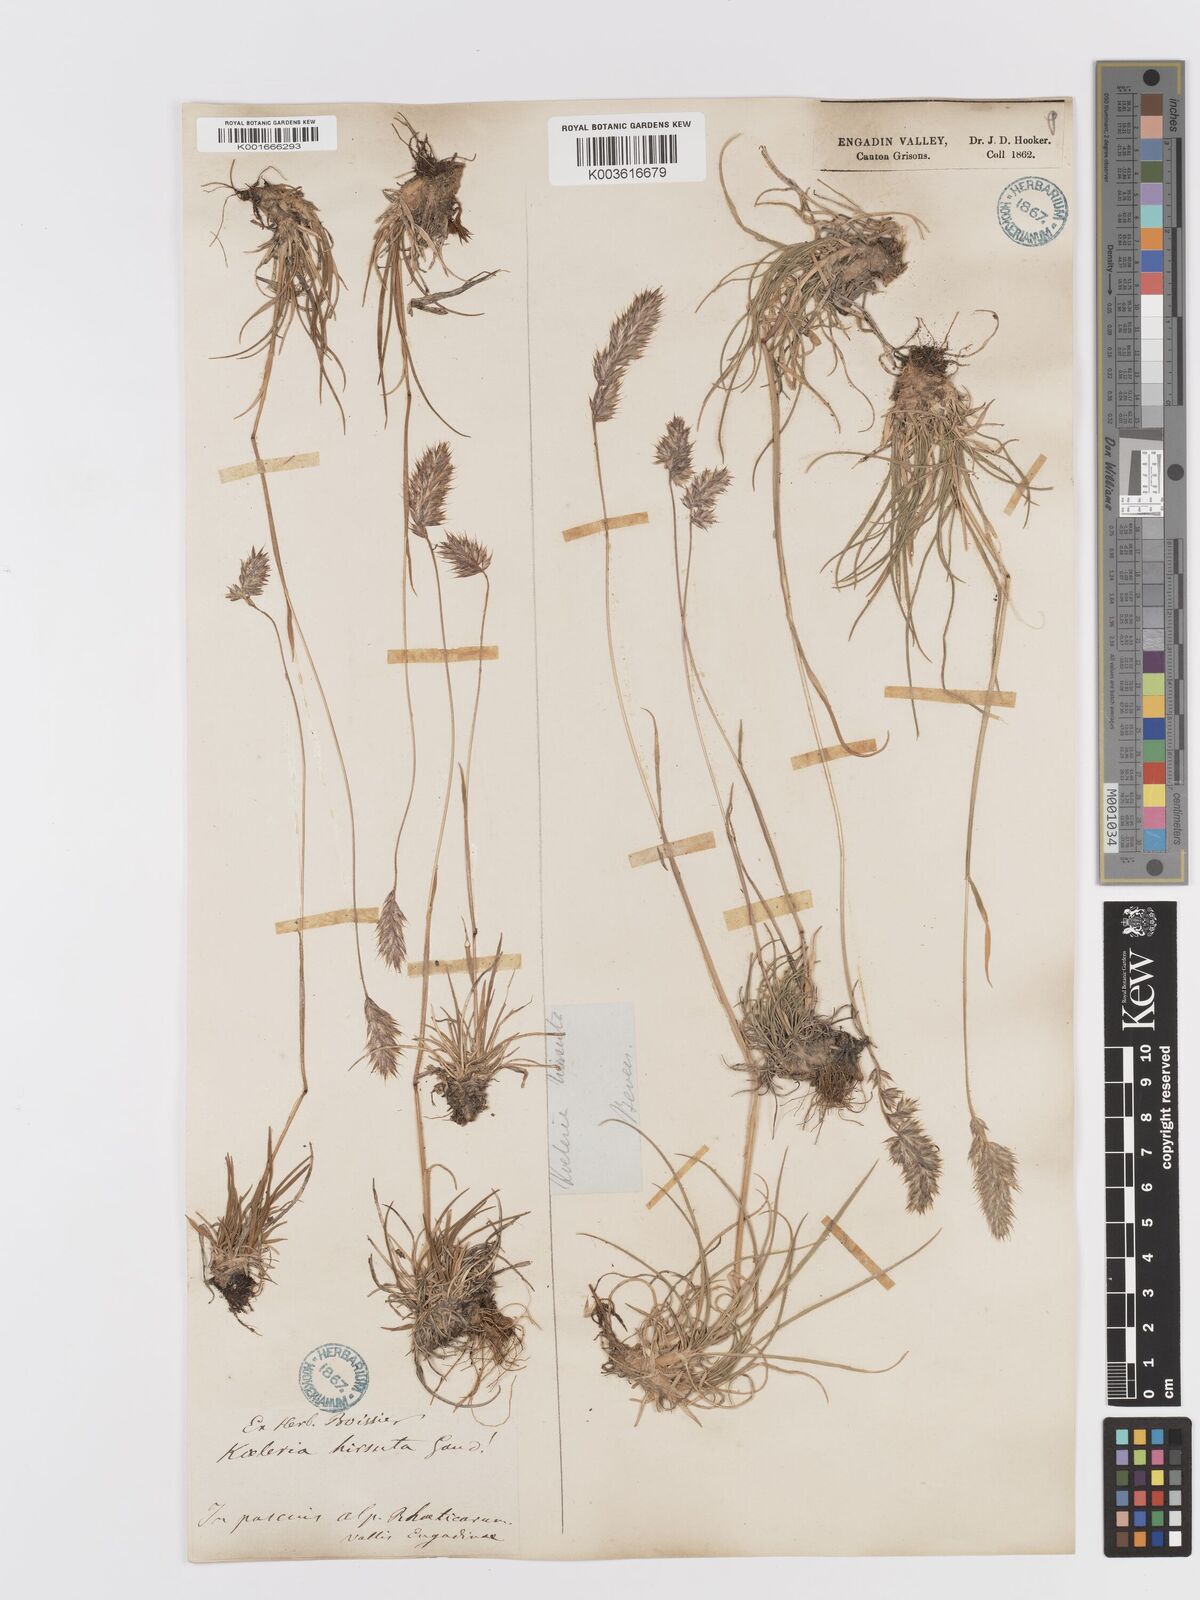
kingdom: Plantae
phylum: Tracheophyta
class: Liliopsida
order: Poales
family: Poaceae
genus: Koeleria
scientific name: Koeleria hirsuta
